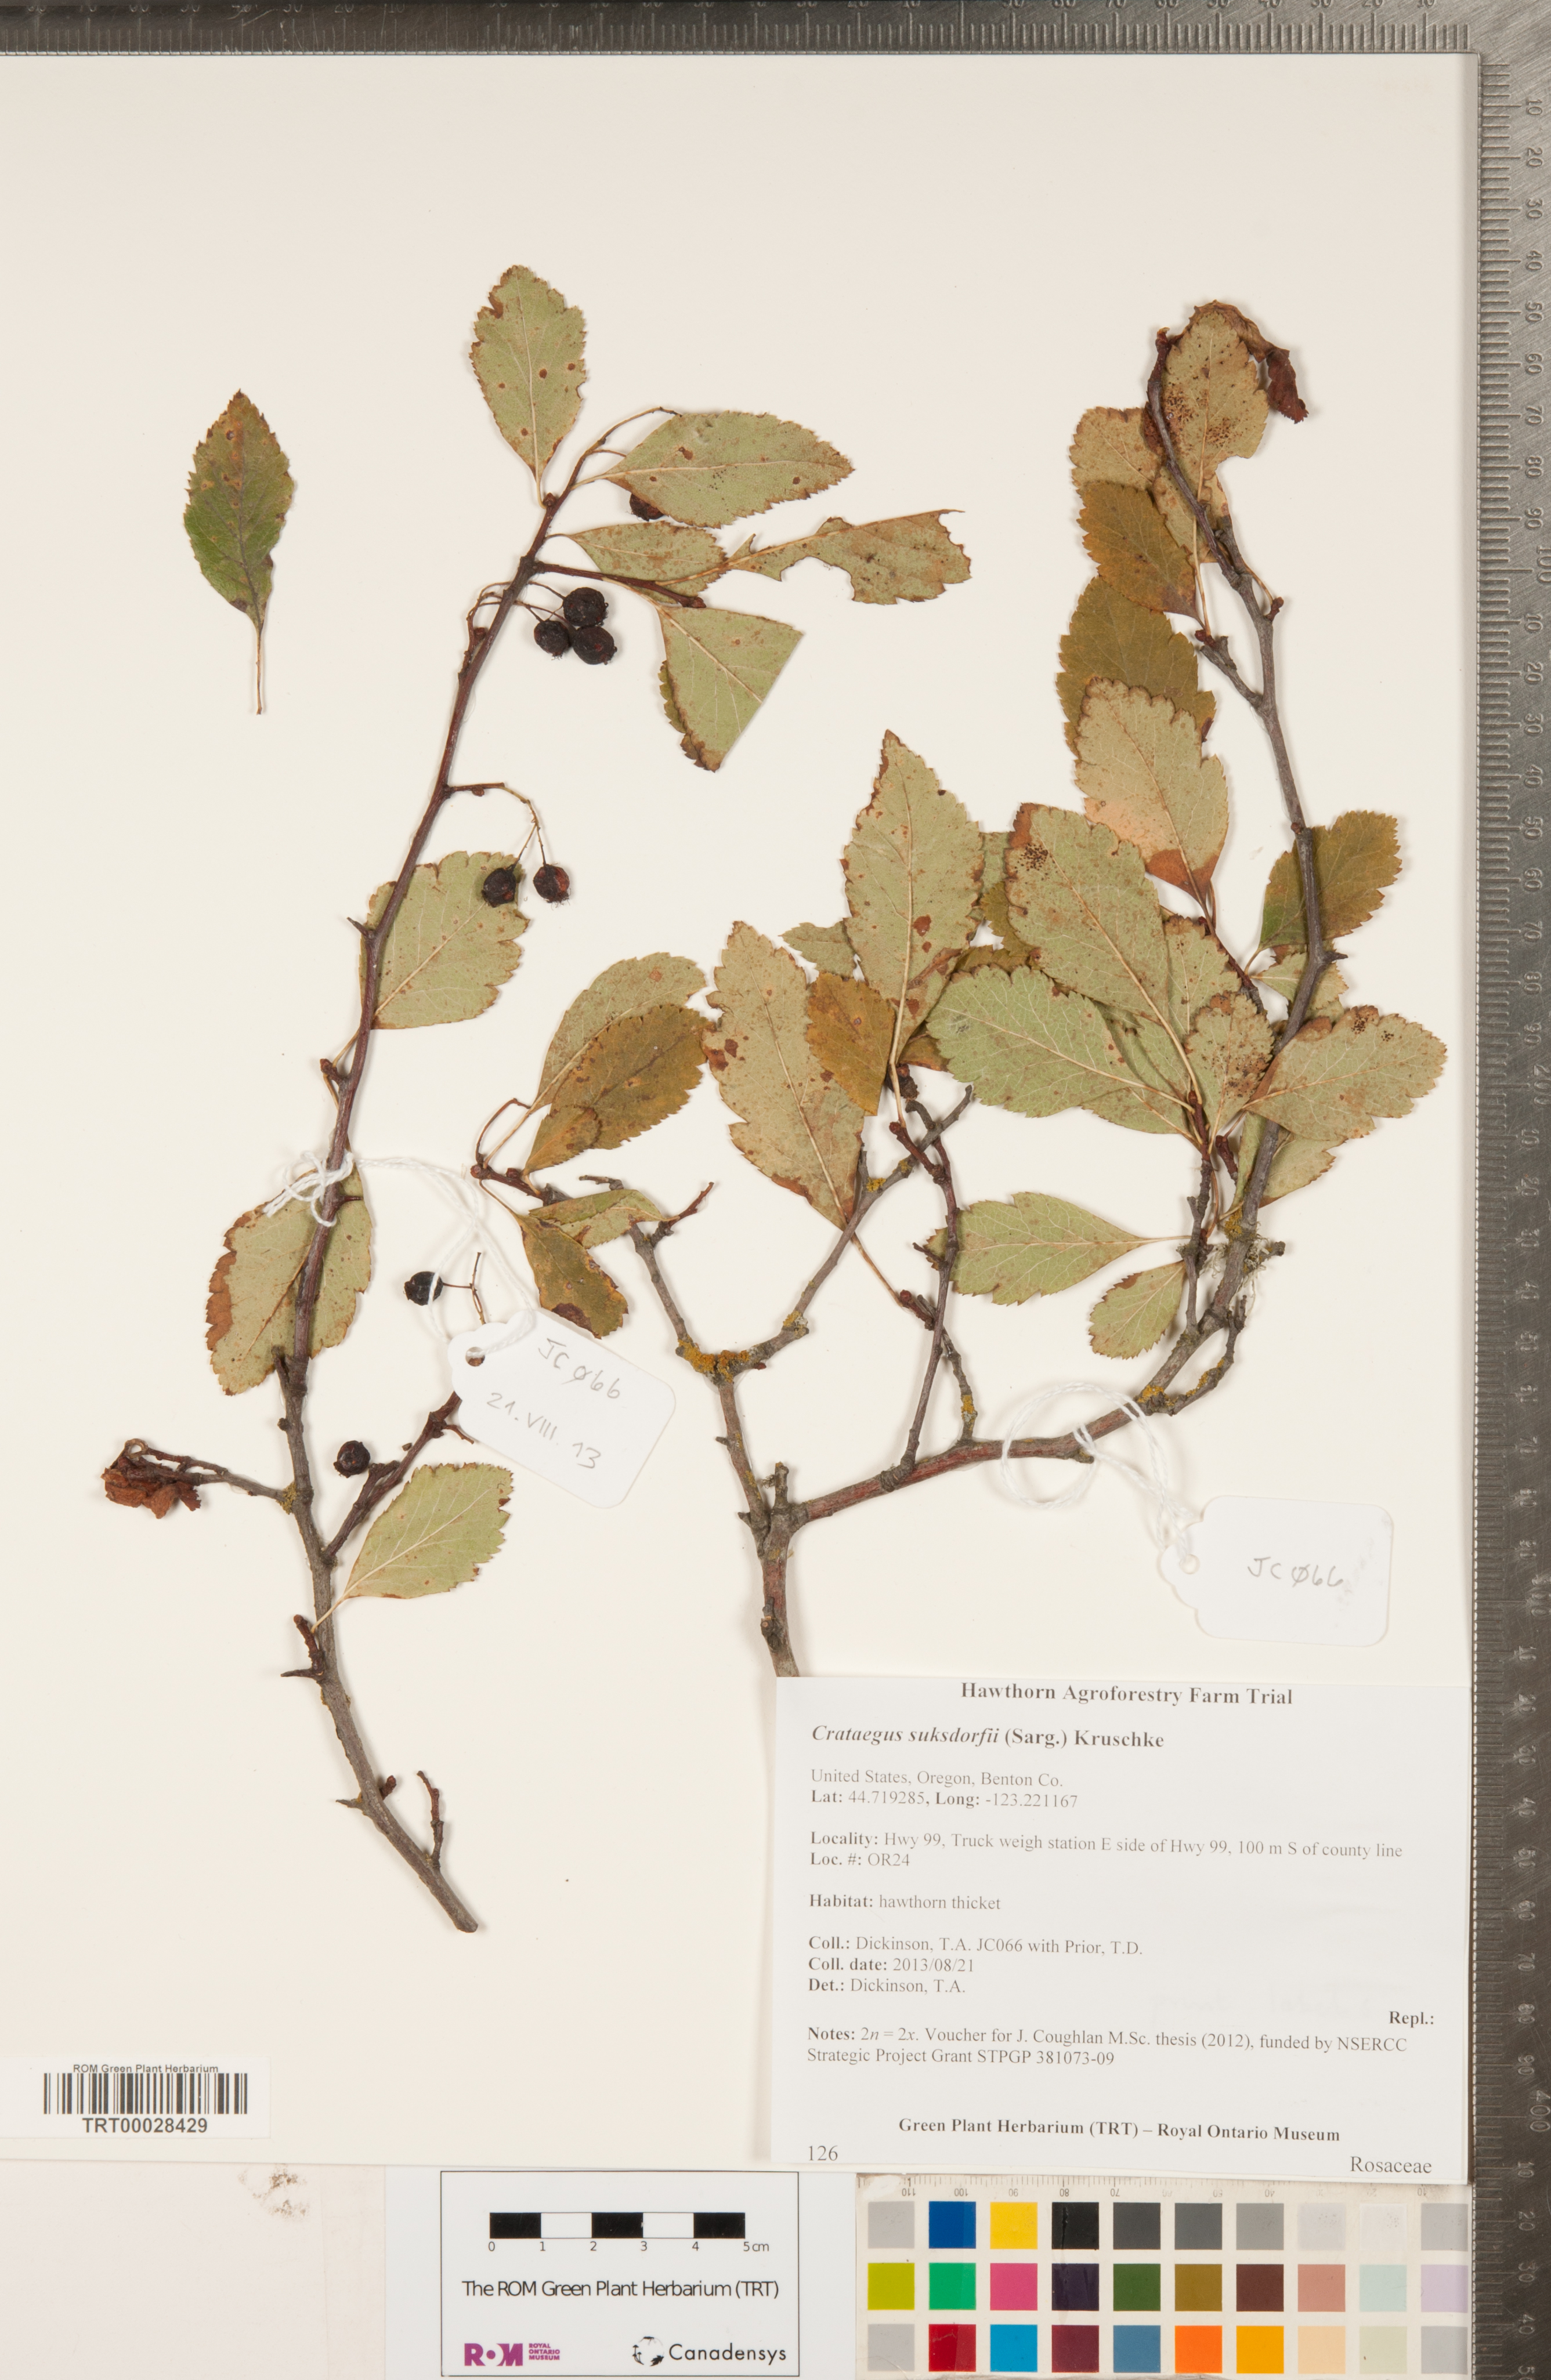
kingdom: Plantae
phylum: Tracheophyta
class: Magnoliopsida
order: Rosales
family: Rosaceae
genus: Crataegus
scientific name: Crataegus gaylussacia
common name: Huckleberry hawthorn
